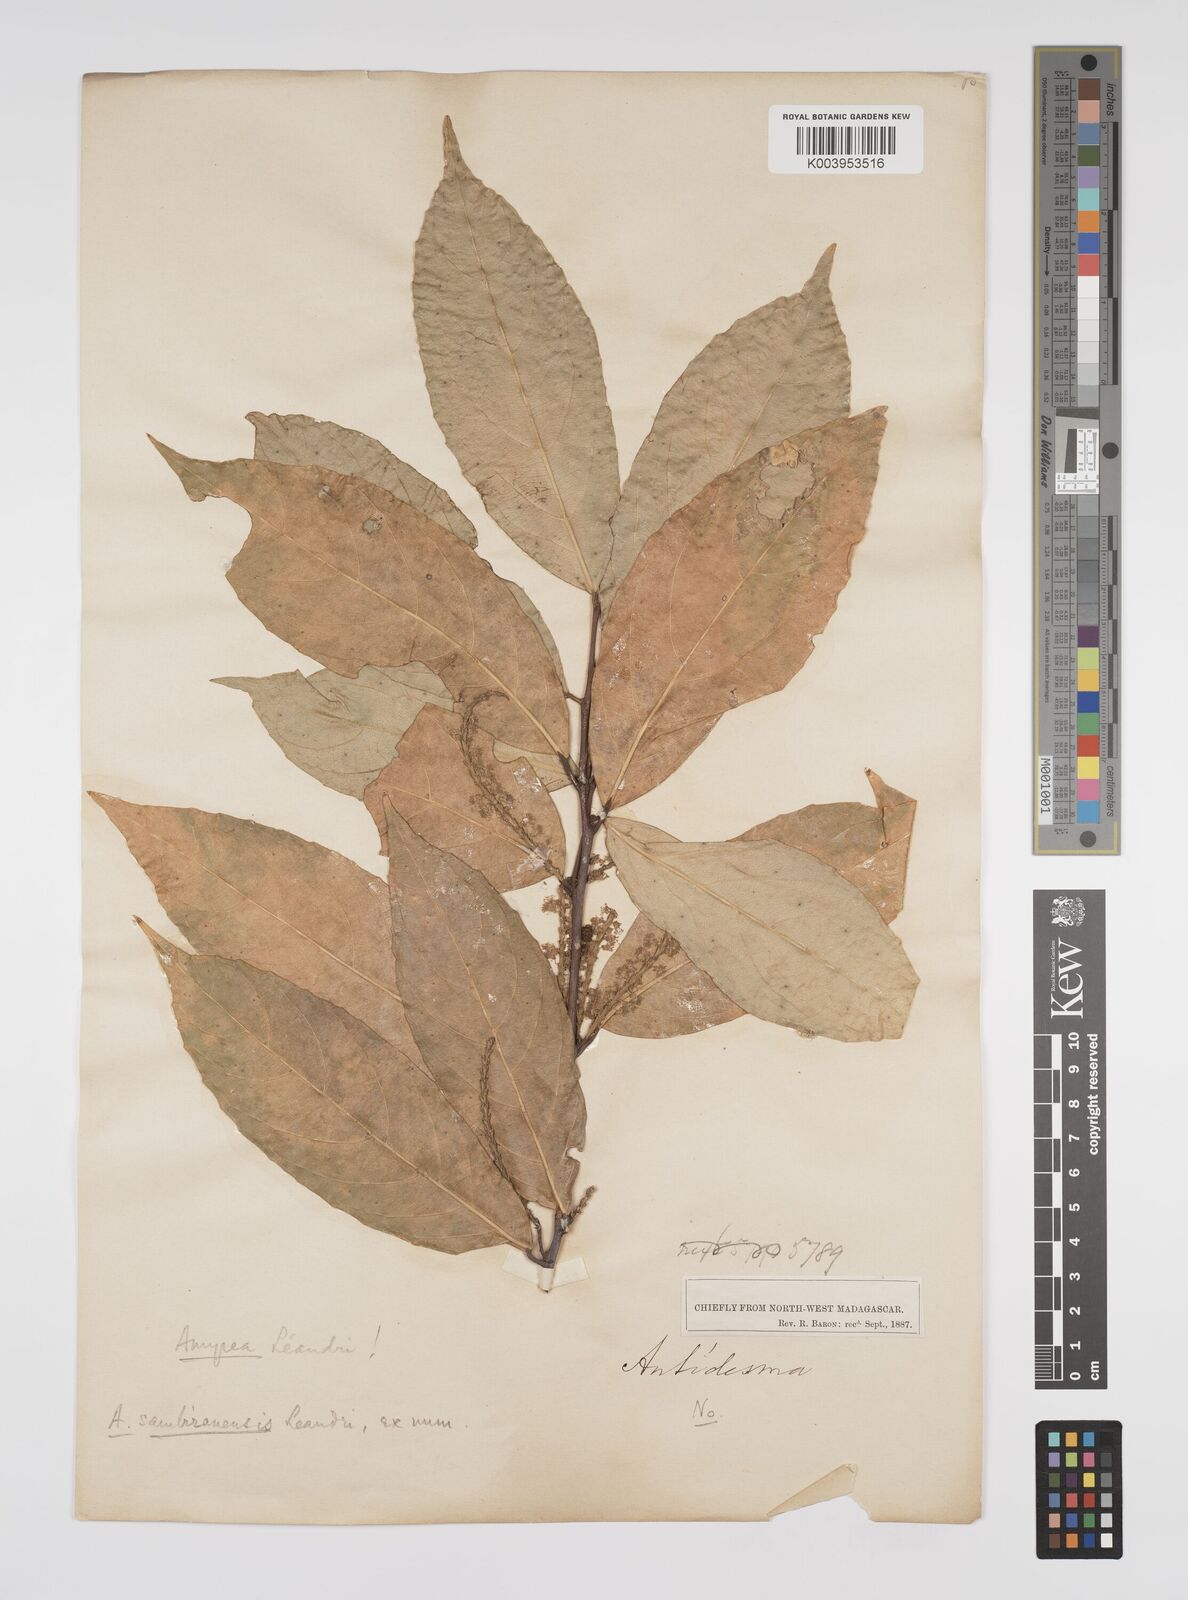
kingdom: Plantae
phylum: Tracheophyta
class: Magnoliopsida
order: Malpighiales
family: Euphorbiaceae
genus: Amyrea
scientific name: Amyrea sambiranensis
